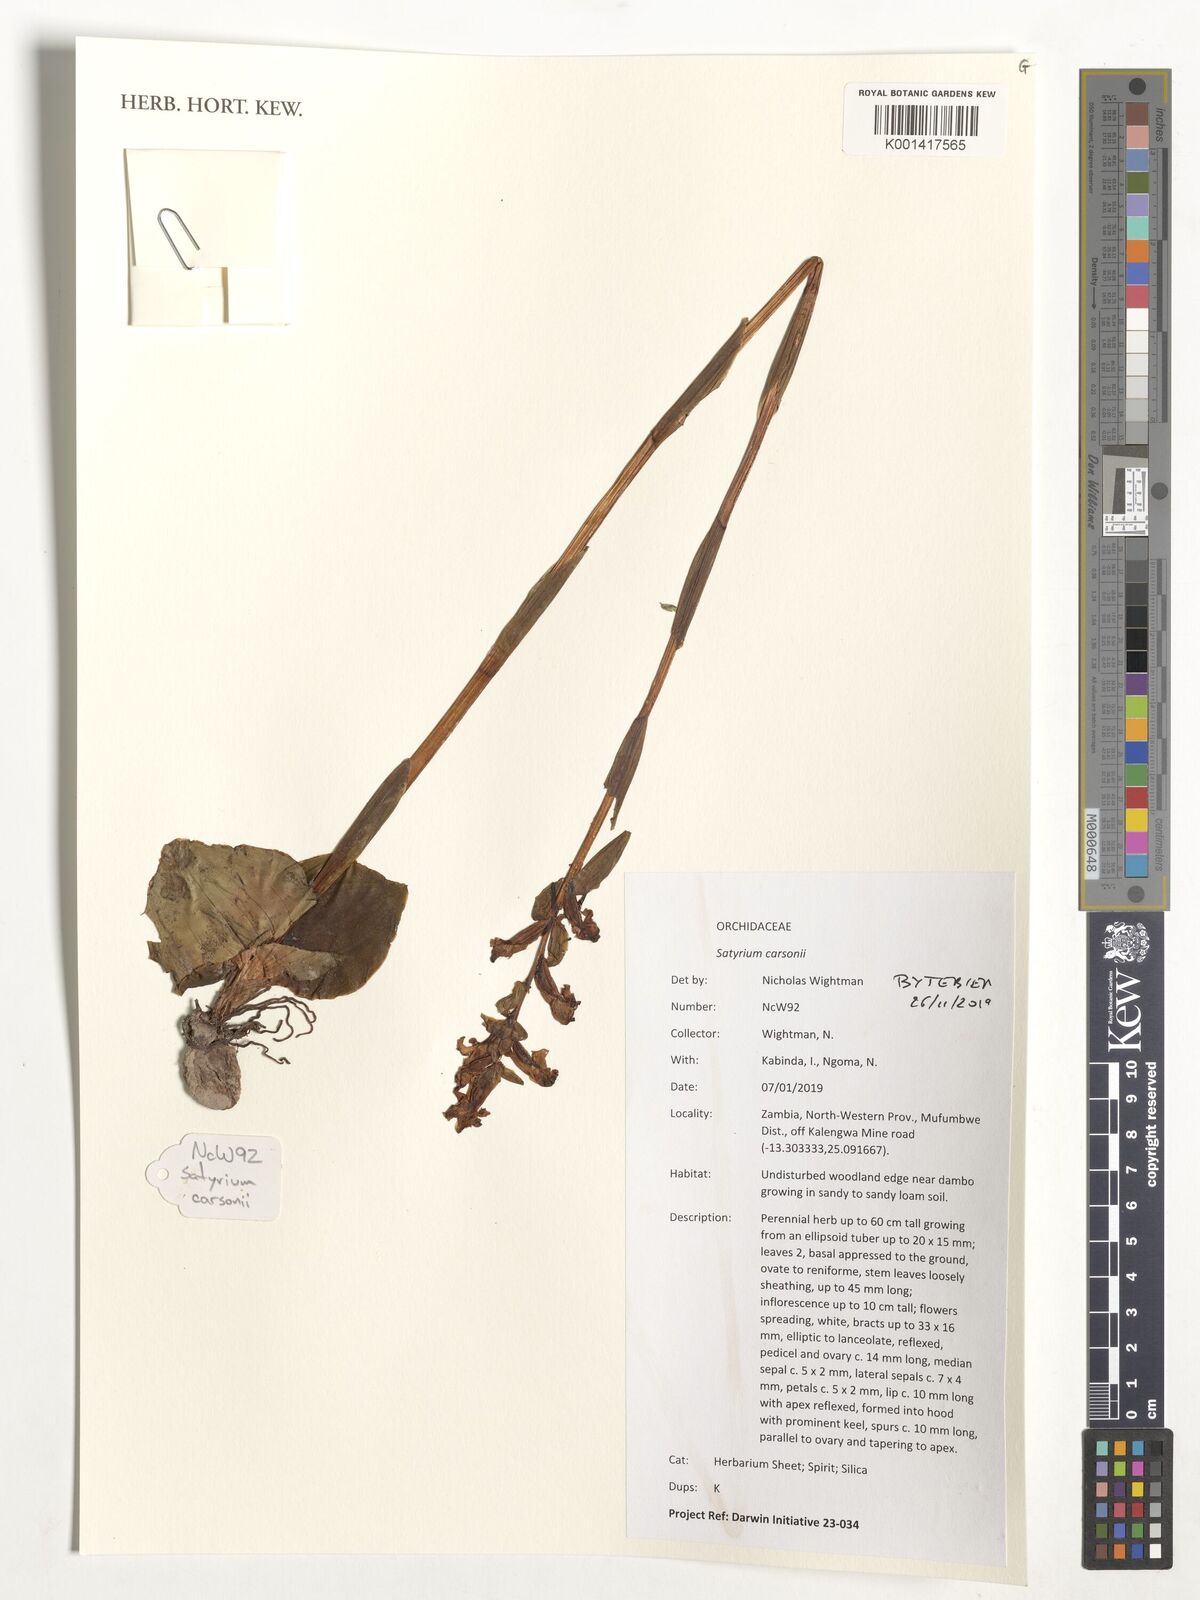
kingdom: Plantae
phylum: Tracheophyta
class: Liliopsida
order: Asparagales
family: Orchidaceae
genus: Satyrium
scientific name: Satyrium carsonii
